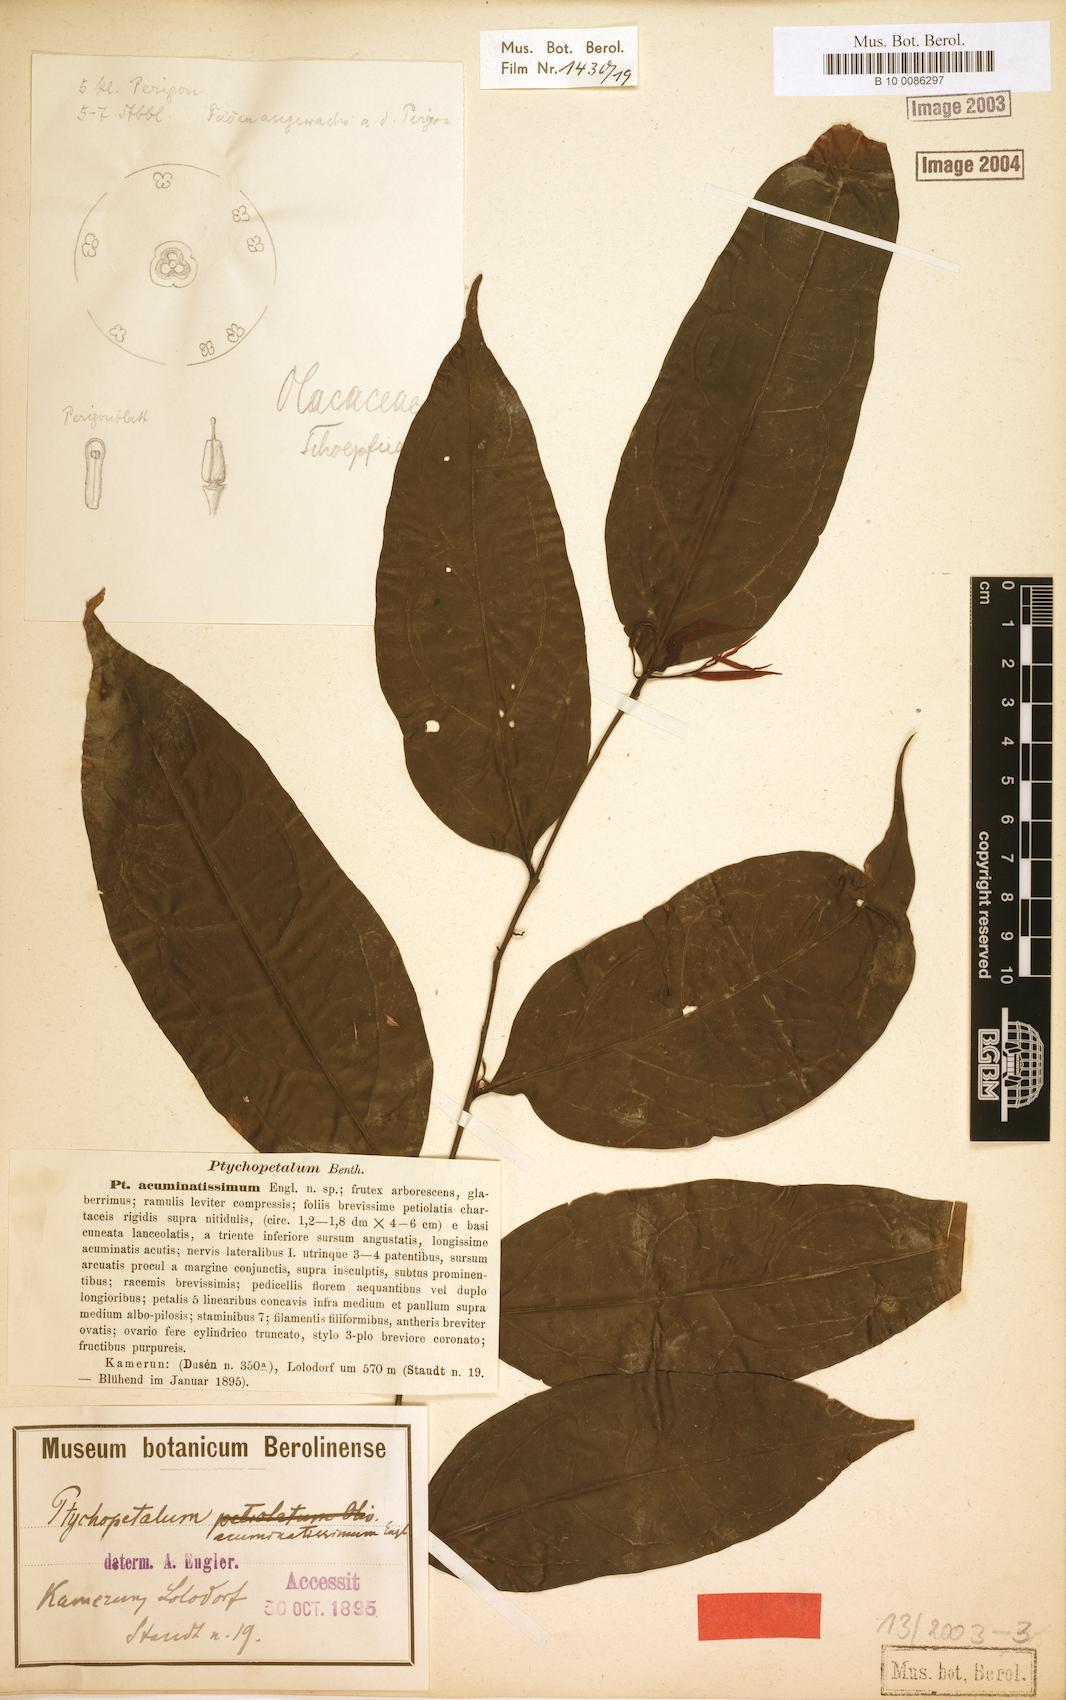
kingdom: Plantae
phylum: Tracheophyta
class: Magnoliopsida
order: Santalales
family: Olacaceae
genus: Ptychopetalum
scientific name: Ptychopetalum petiolatum
